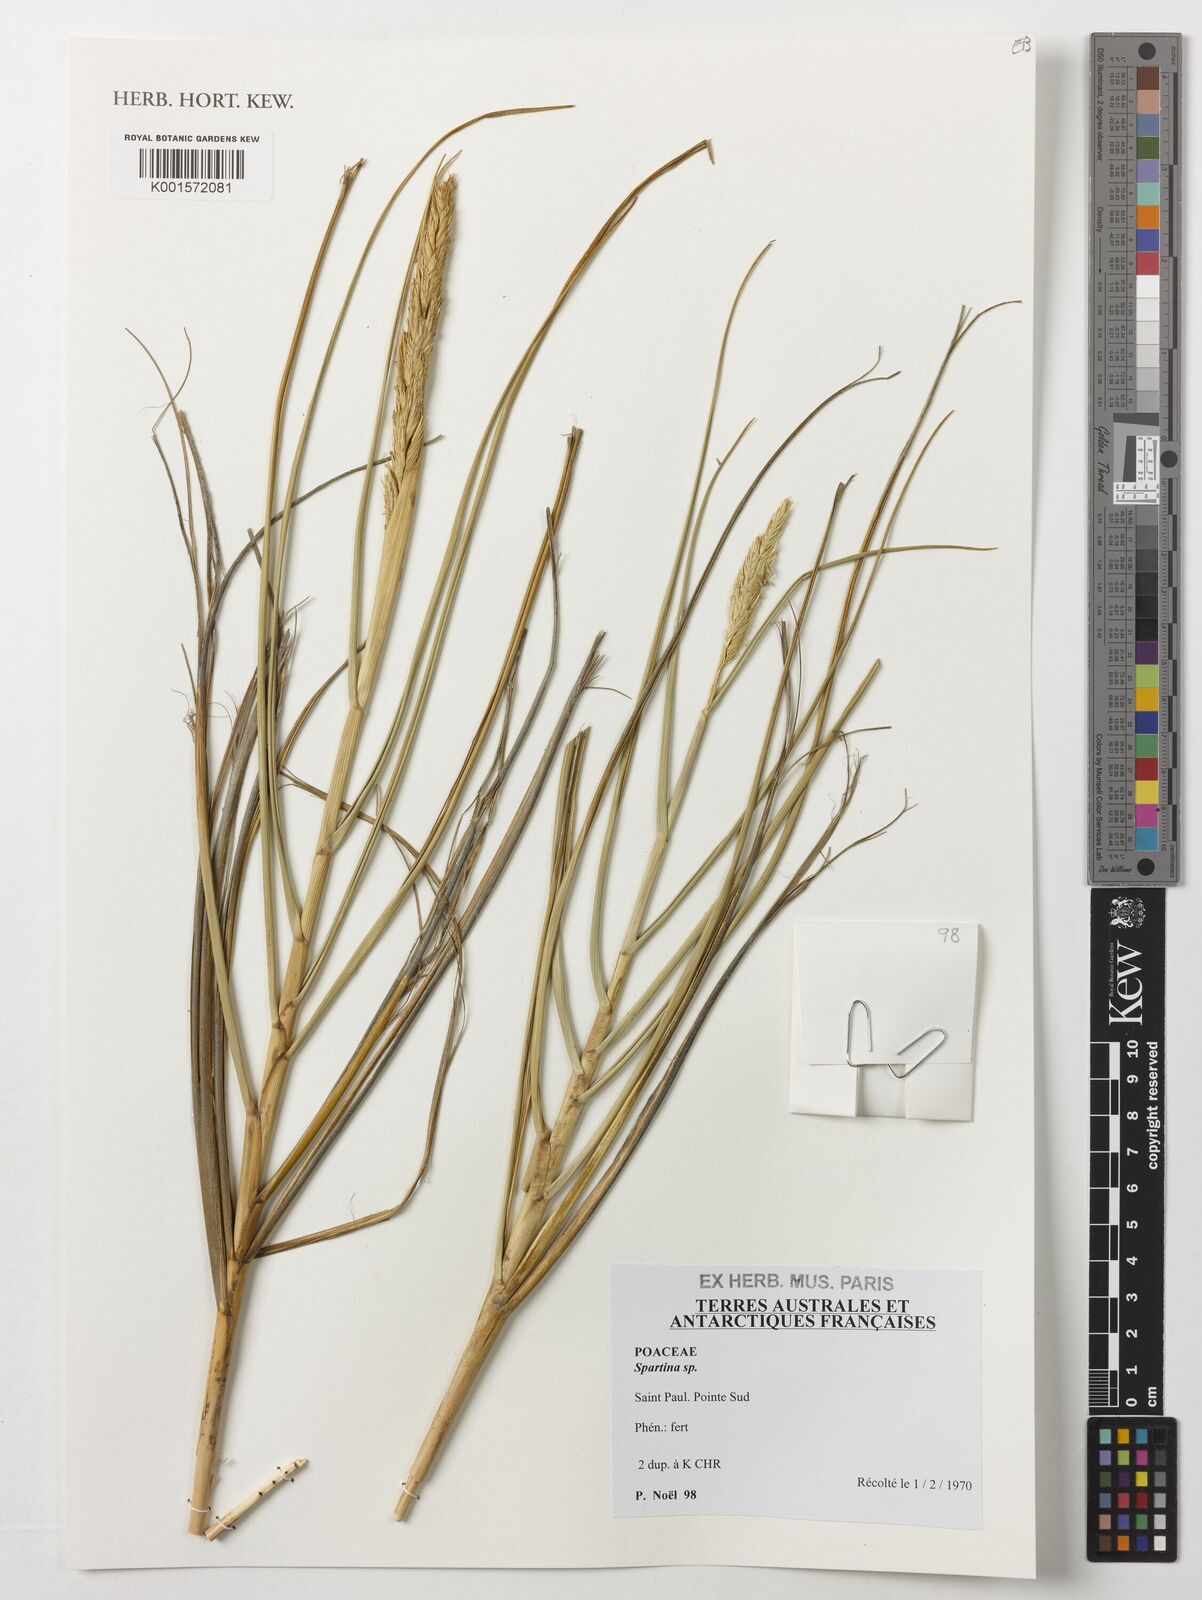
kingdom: Animalia
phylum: Mollusca
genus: Spartina
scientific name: Spartina
